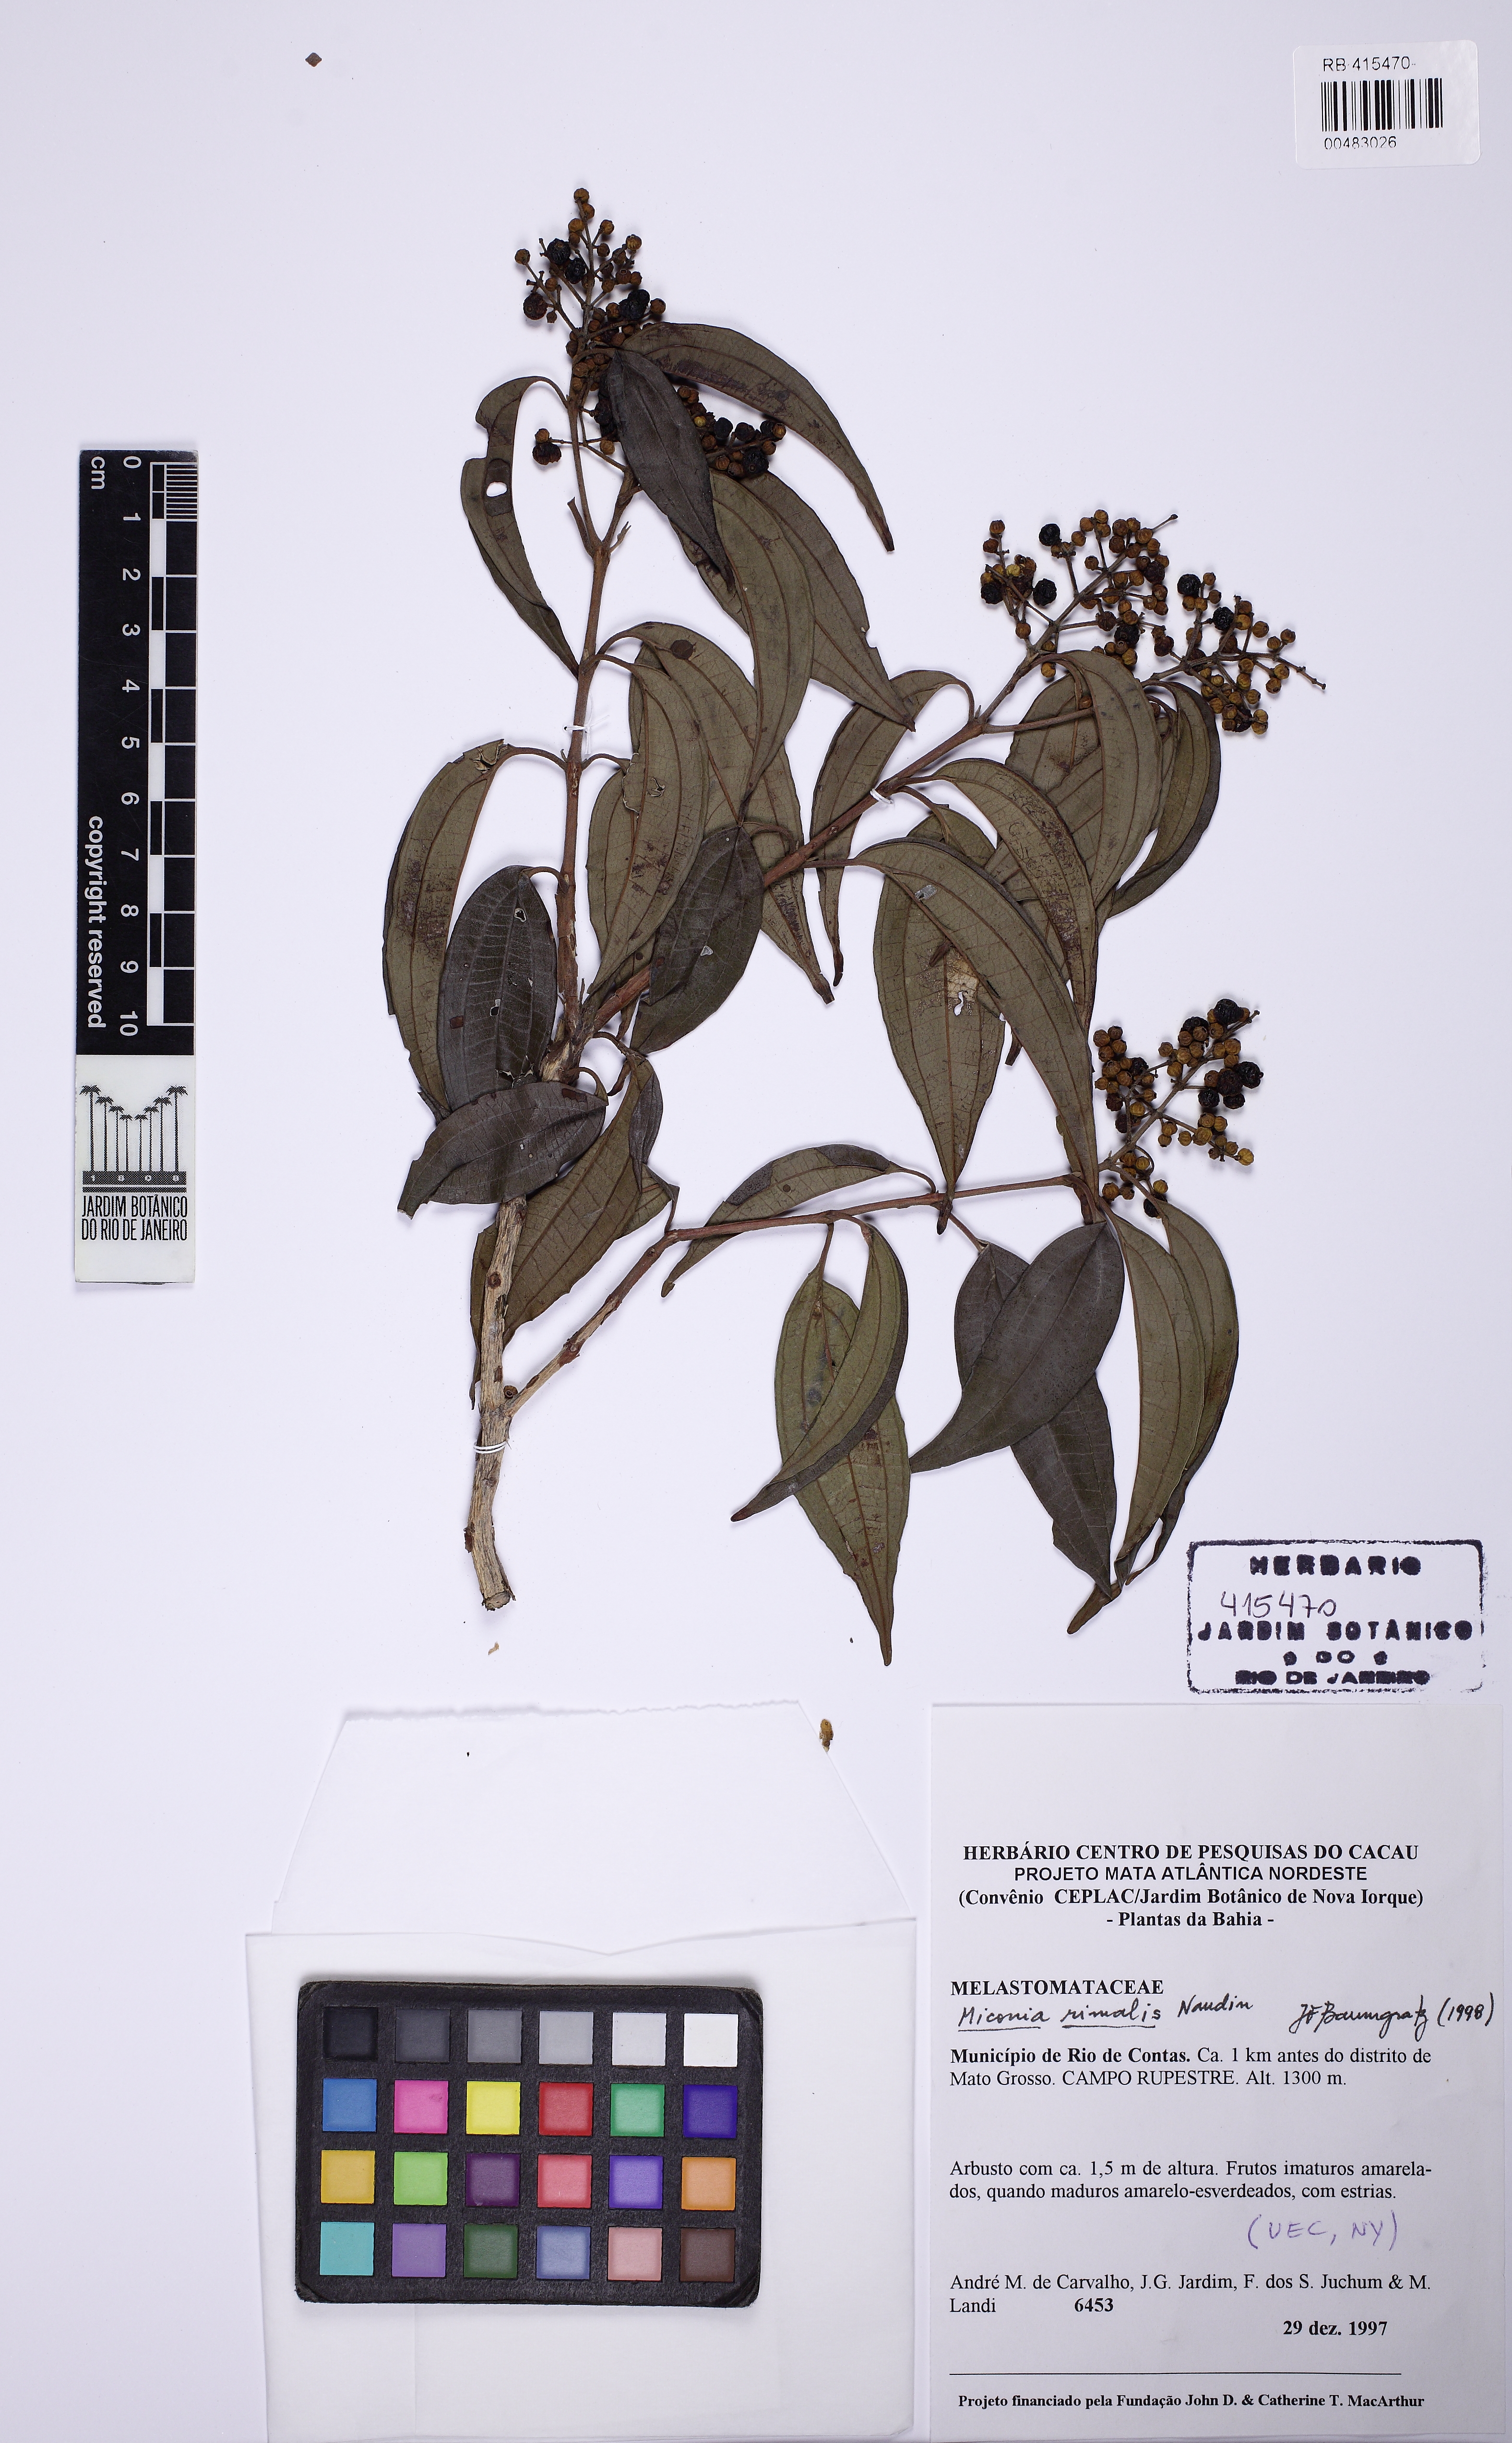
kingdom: Plantae
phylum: Tracheophyta
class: Magnoliopsida
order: Myrtales
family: Melastomataceae
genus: Miconia
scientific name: Miconia rimalis
